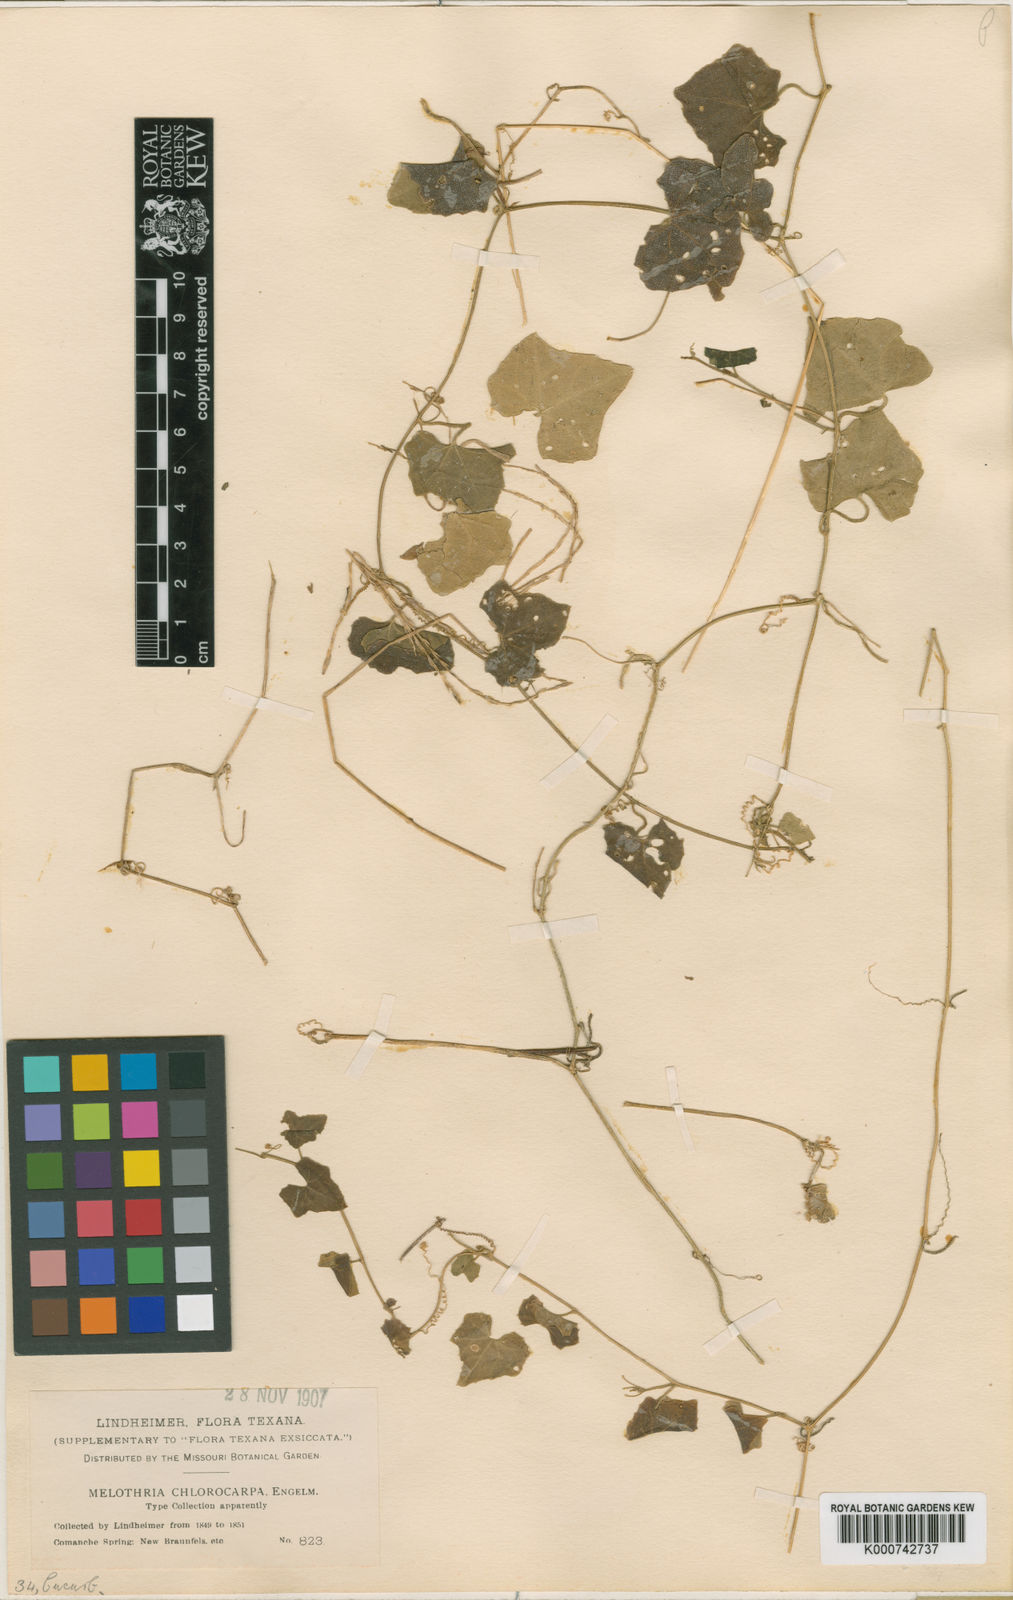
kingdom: Plantae
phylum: Tracheophyta
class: Magnoliopsida
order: Cucurbitales
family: Cucurbitaceae
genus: Melothria
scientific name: Melothria pendula
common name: Creeping-cucumber
